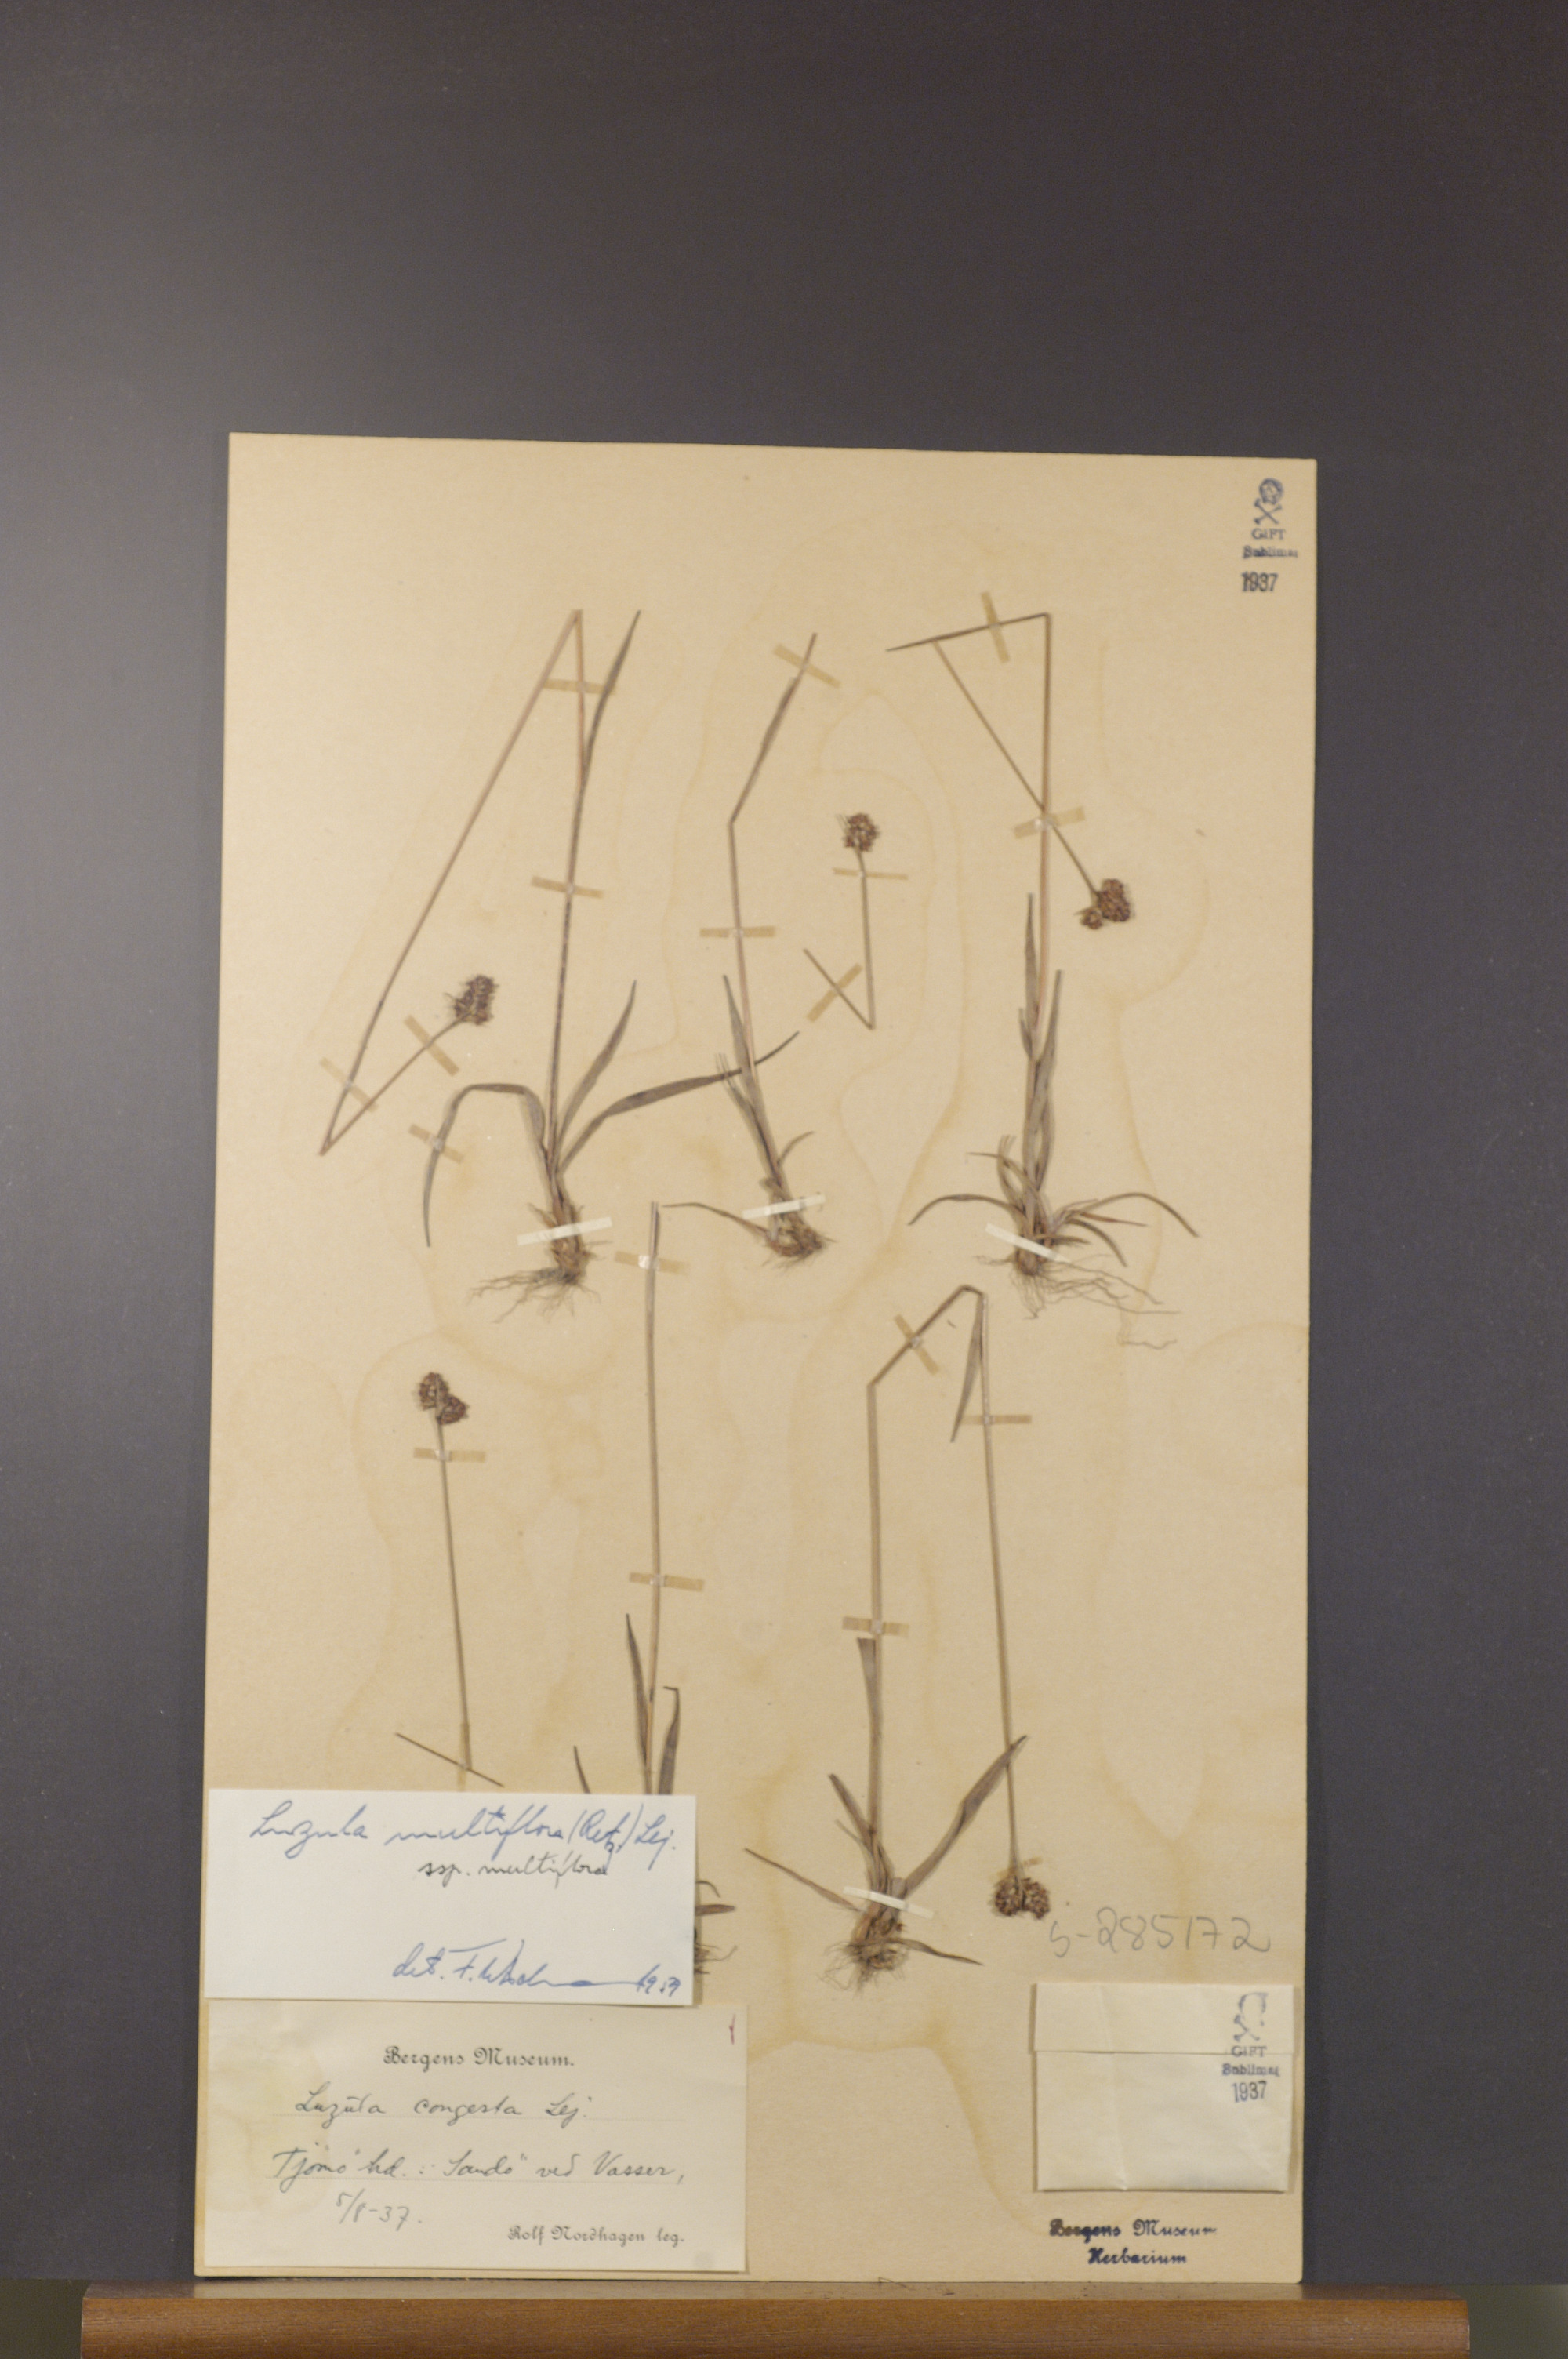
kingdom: Plantae
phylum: Tracheophyta
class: Liliopsida
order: Poales
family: Juncaceae
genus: Luzula
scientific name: Luzula multiflora
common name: Heath wood-rush
